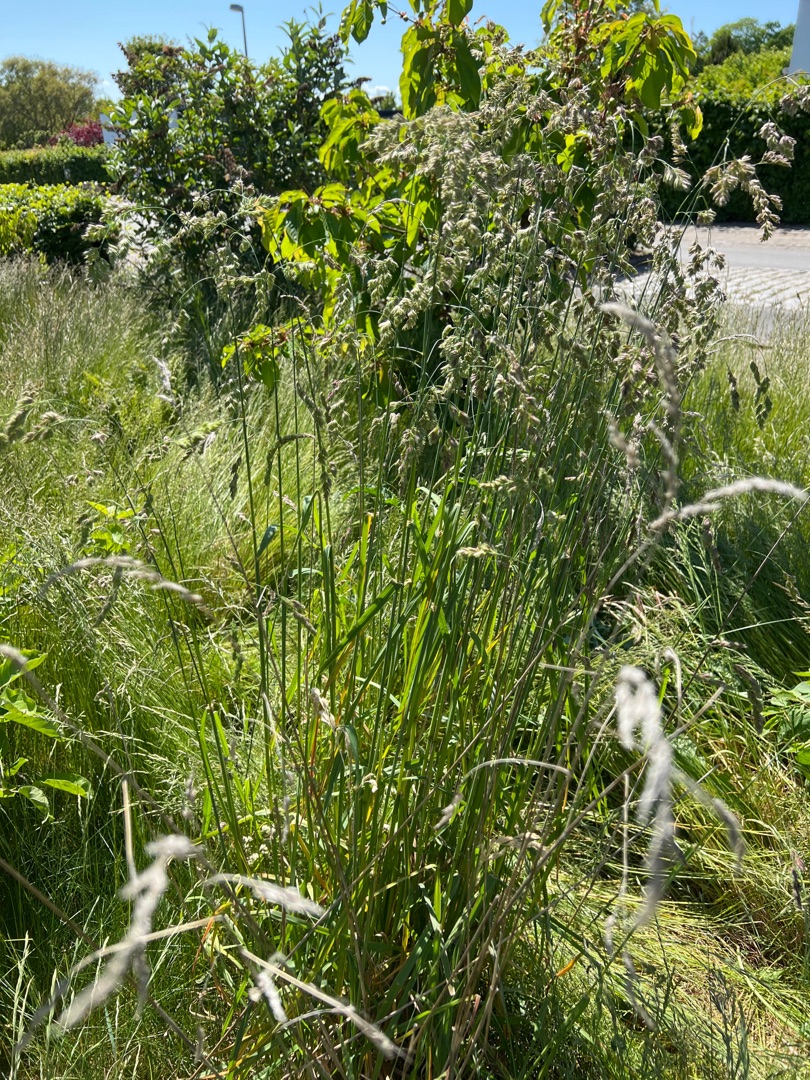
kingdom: Plantae
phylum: Tracheophyta
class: Liliopsida
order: Poales
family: Poaceae
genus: Dactylis
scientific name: Dactylis glomerata
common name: Almindelig hundegræs
